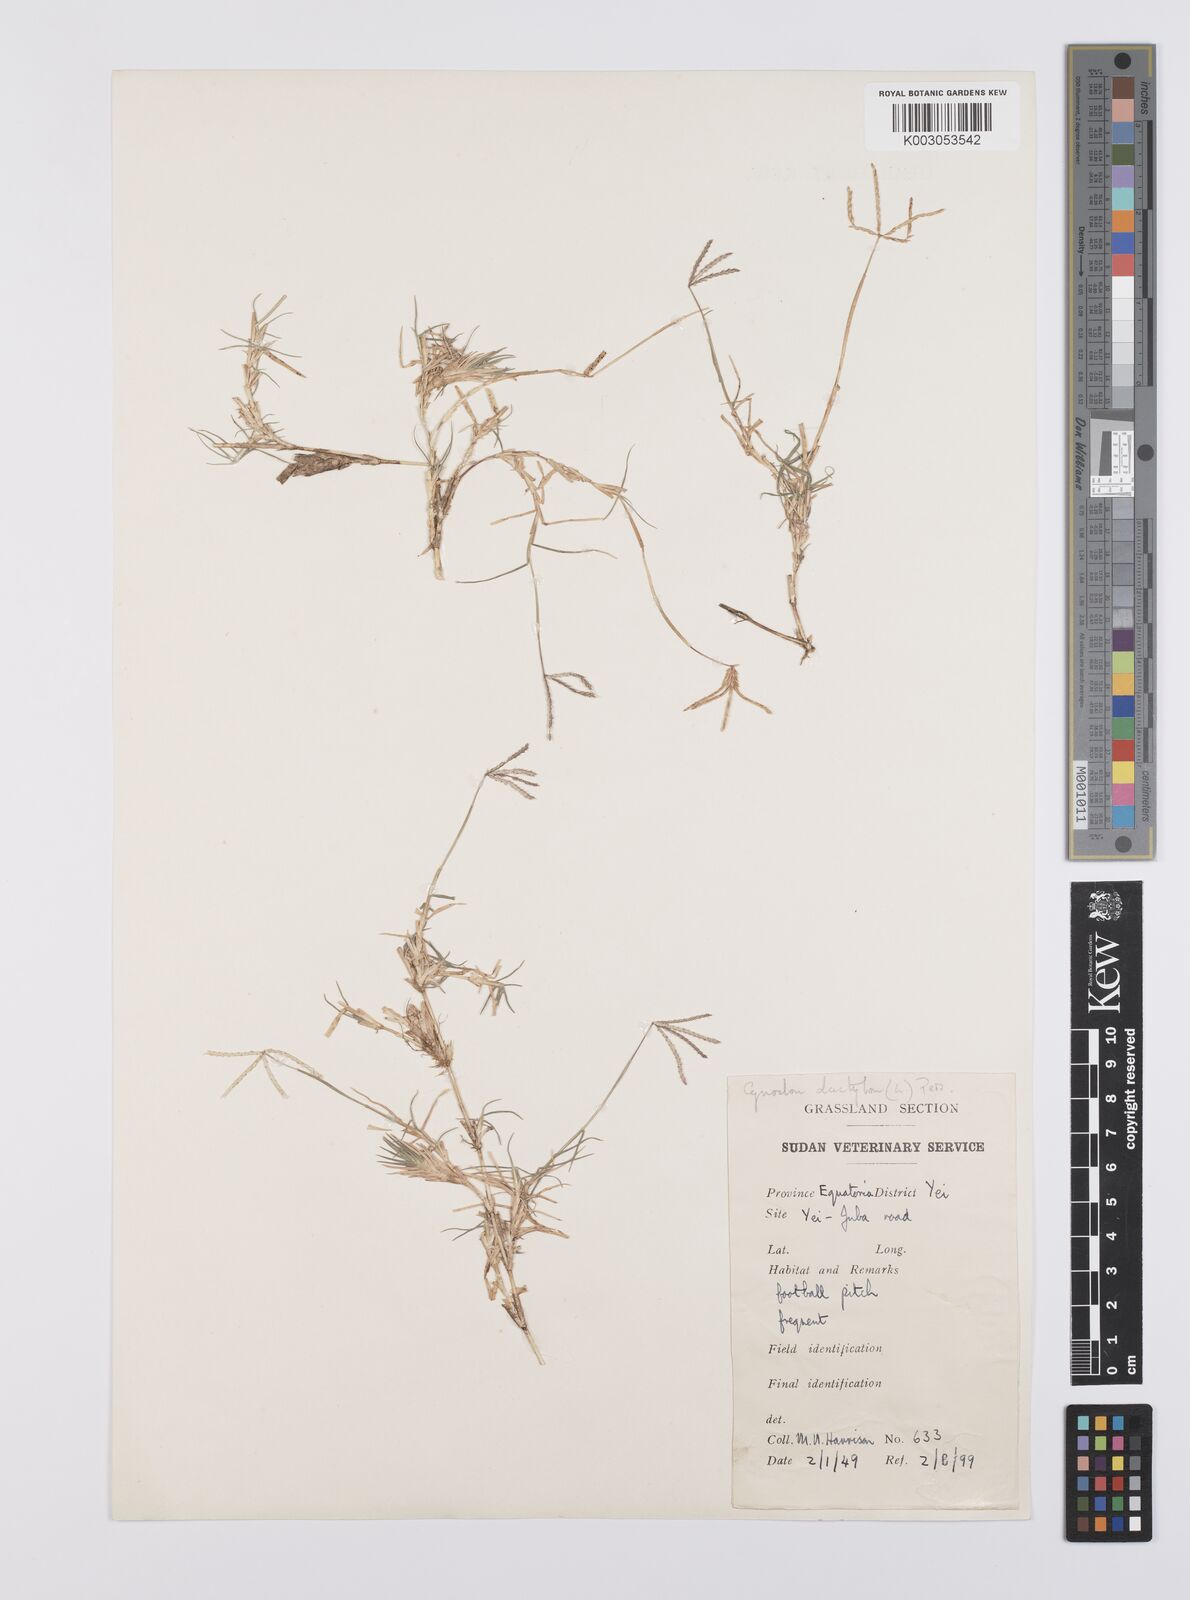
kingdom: Plantae
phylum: Tracheophyta
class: Liliopsida
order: Poales
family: Poaceae
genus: Cynodon
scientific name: Cynodon dactylon
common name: Bermuda grass
